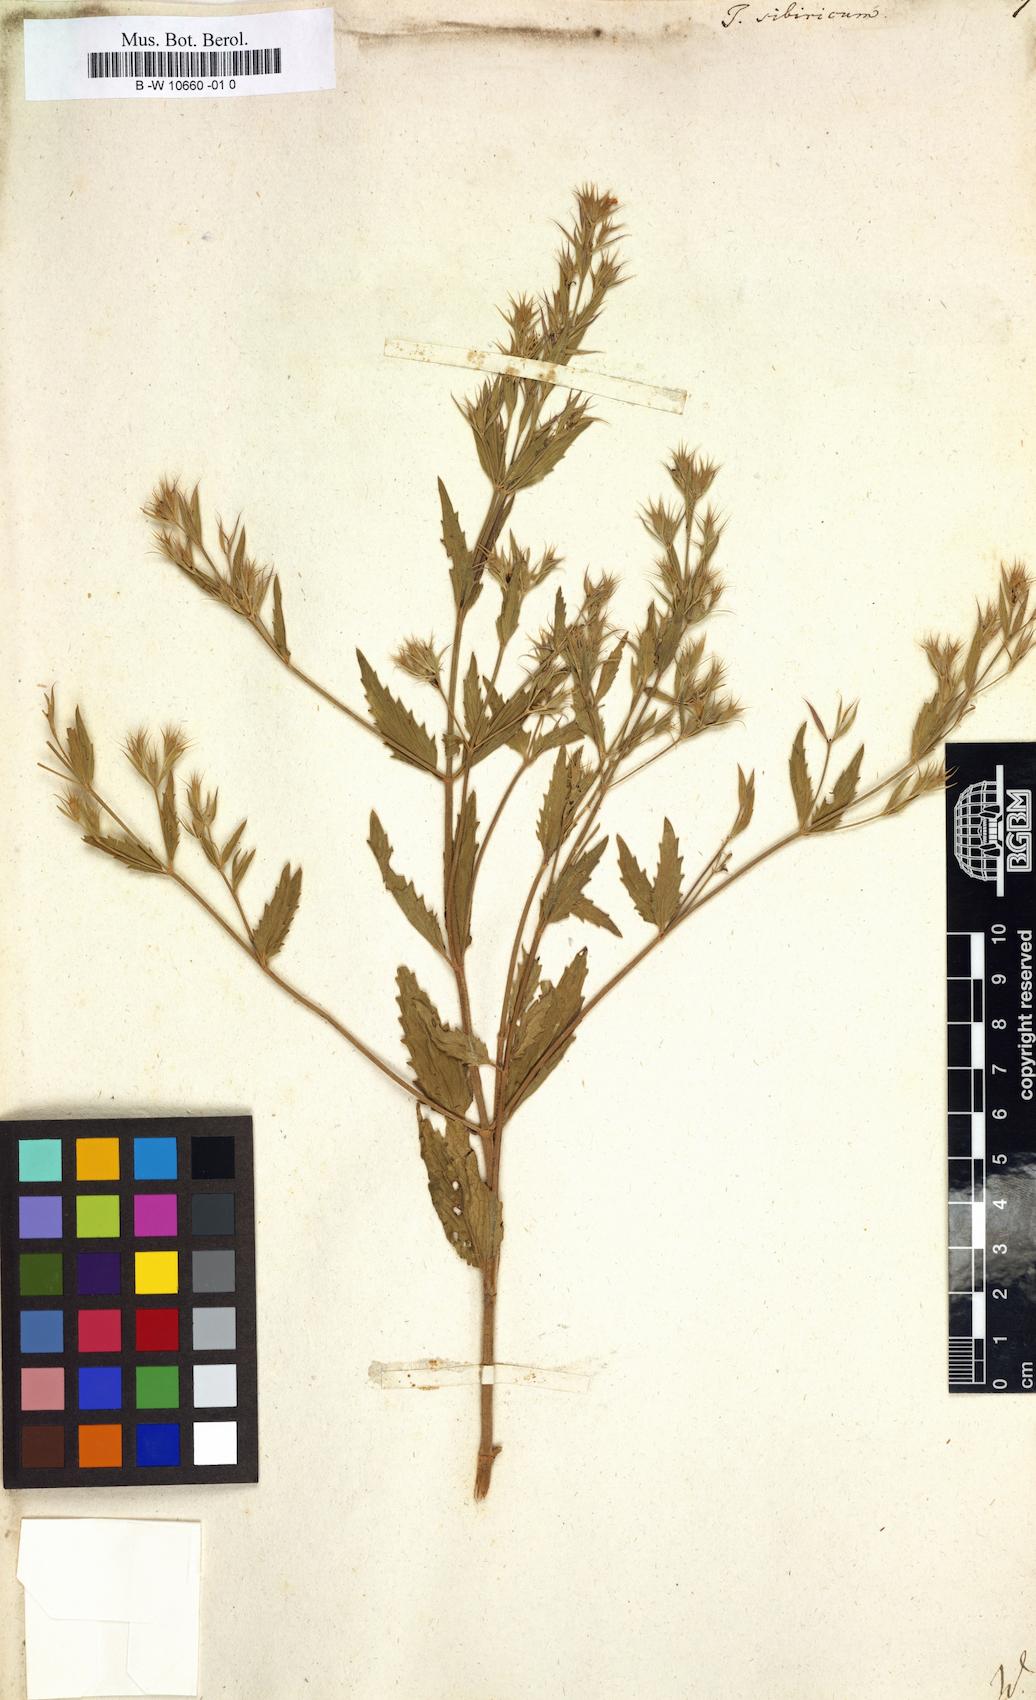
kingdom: Plantae
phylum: Tracheophyta
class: Magnoliopsida
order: Lamiales
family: Lamiaceae
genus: Teucrium
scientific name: Teucrium sibiricum
